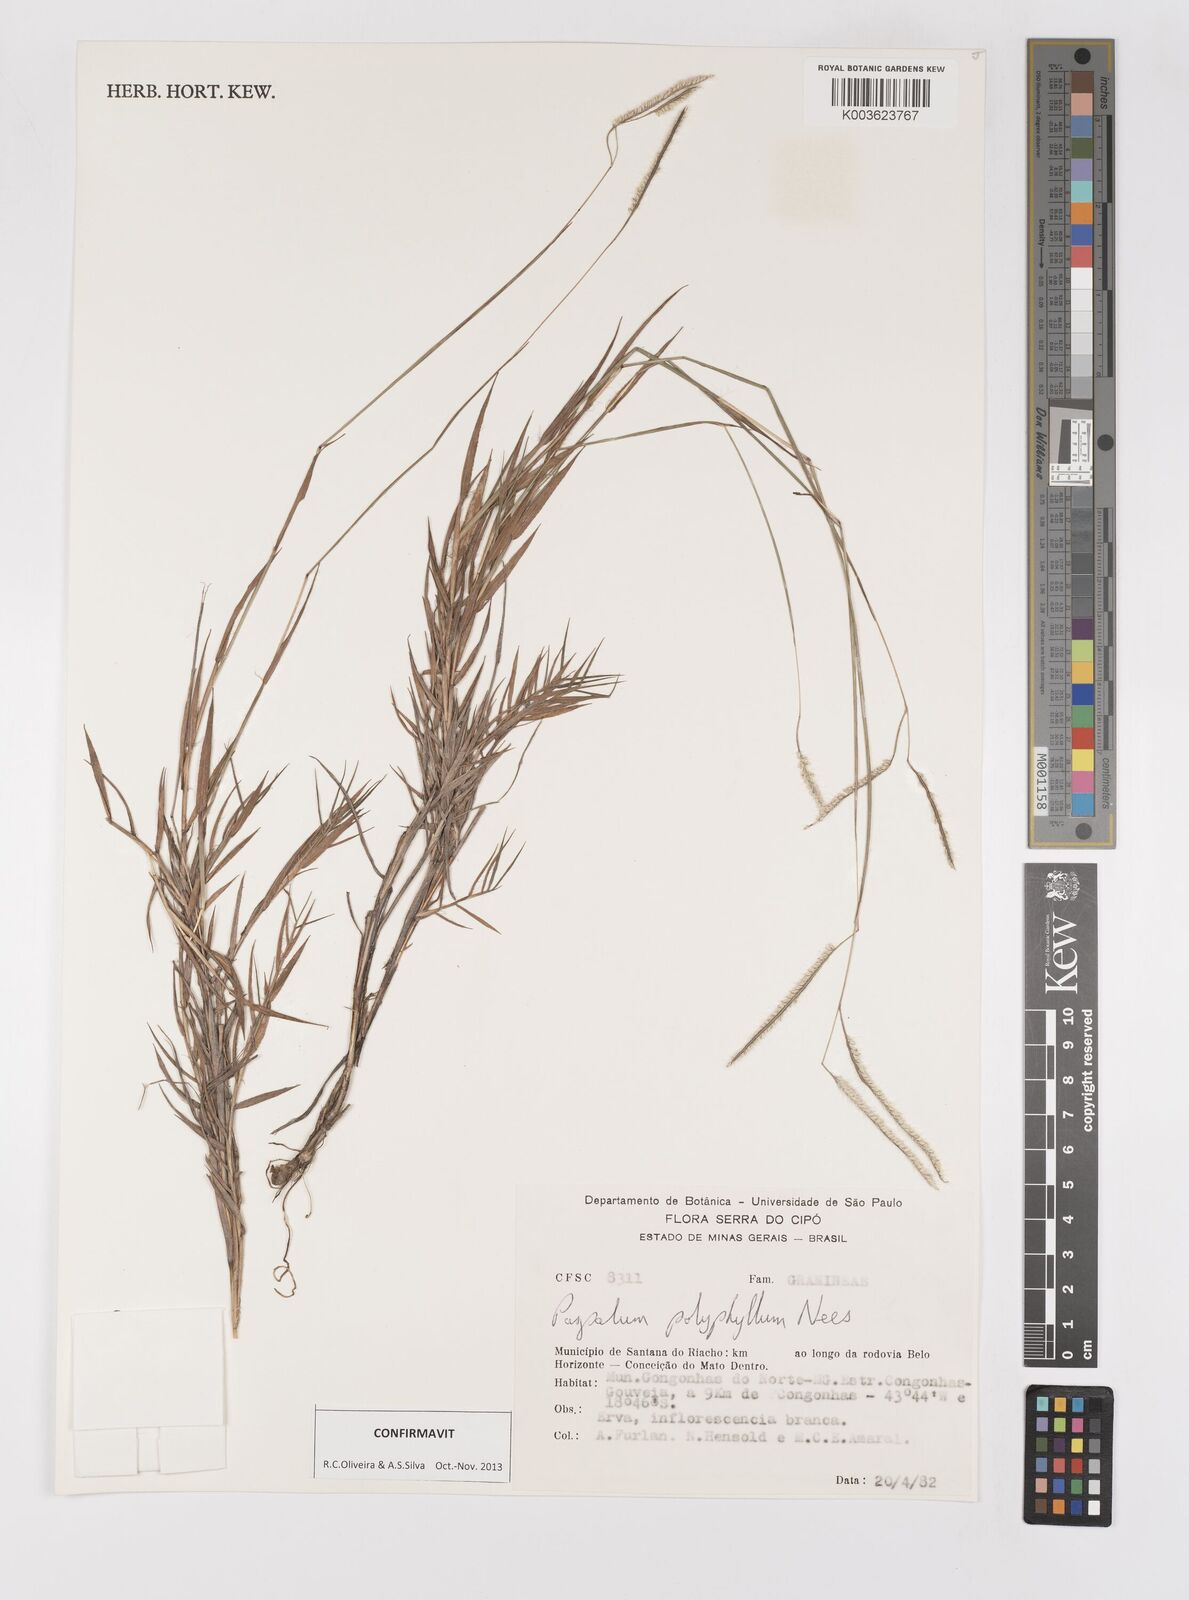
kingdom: Plantae
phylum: Tracheophyta
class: Liliopsida
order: Poales
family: Poaceae
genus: Paspalum
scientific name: Paspalum polyphyllum
